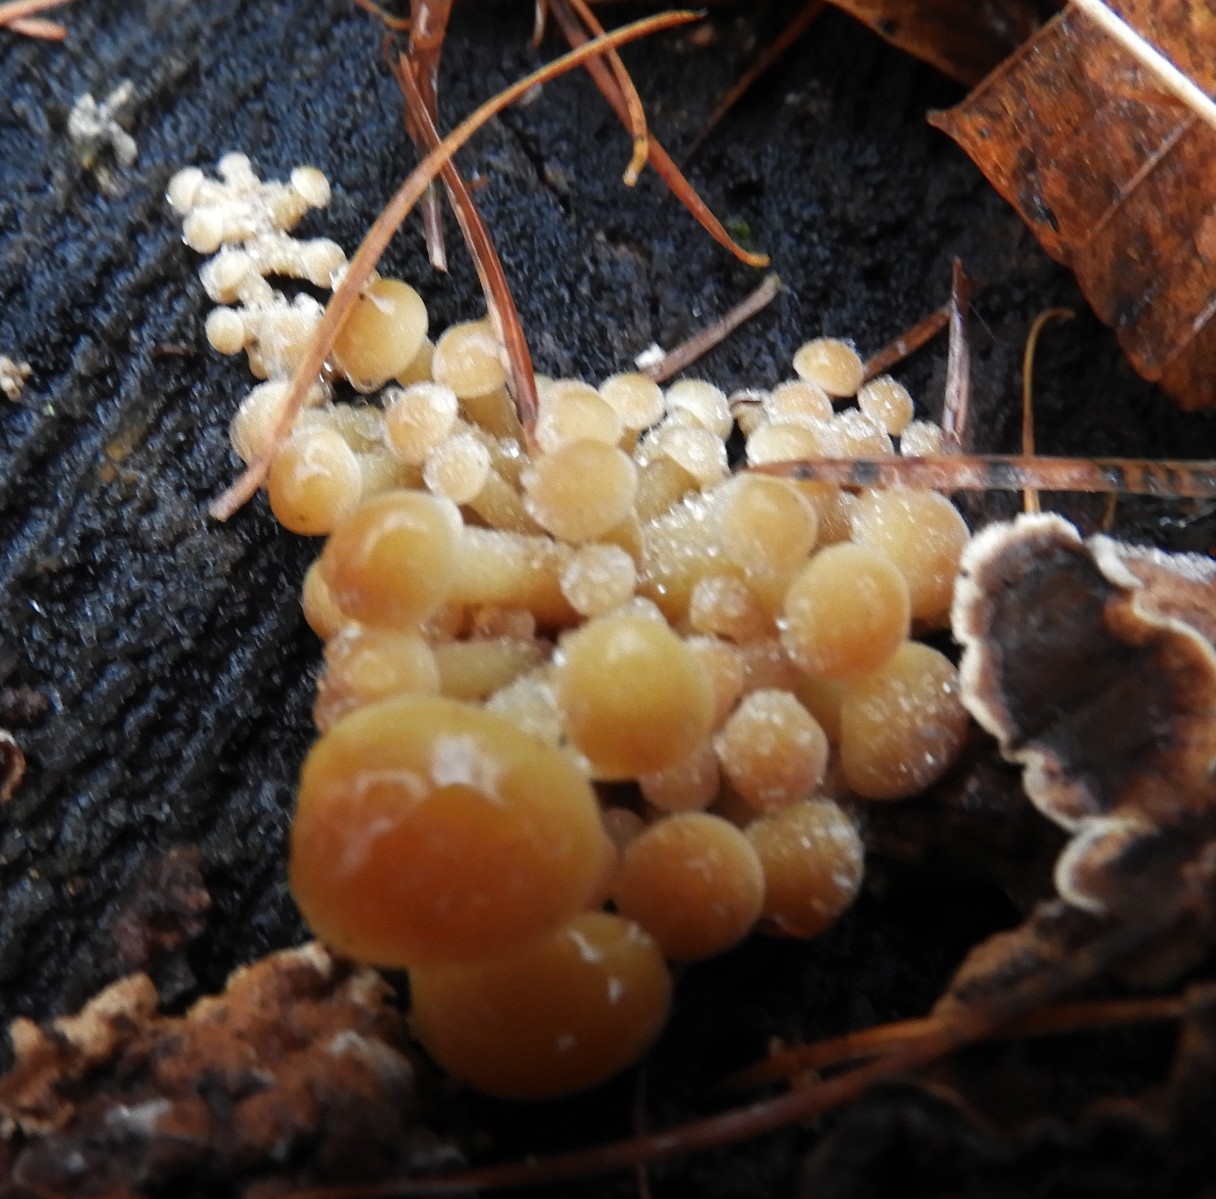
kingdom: Fungi
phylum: Basidiomycota
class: Agaricomycetes
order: Agaricales
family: Physalacriaceae
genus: Flammulina
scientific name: Flammulina velutipes
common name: gul fløjlsfod
